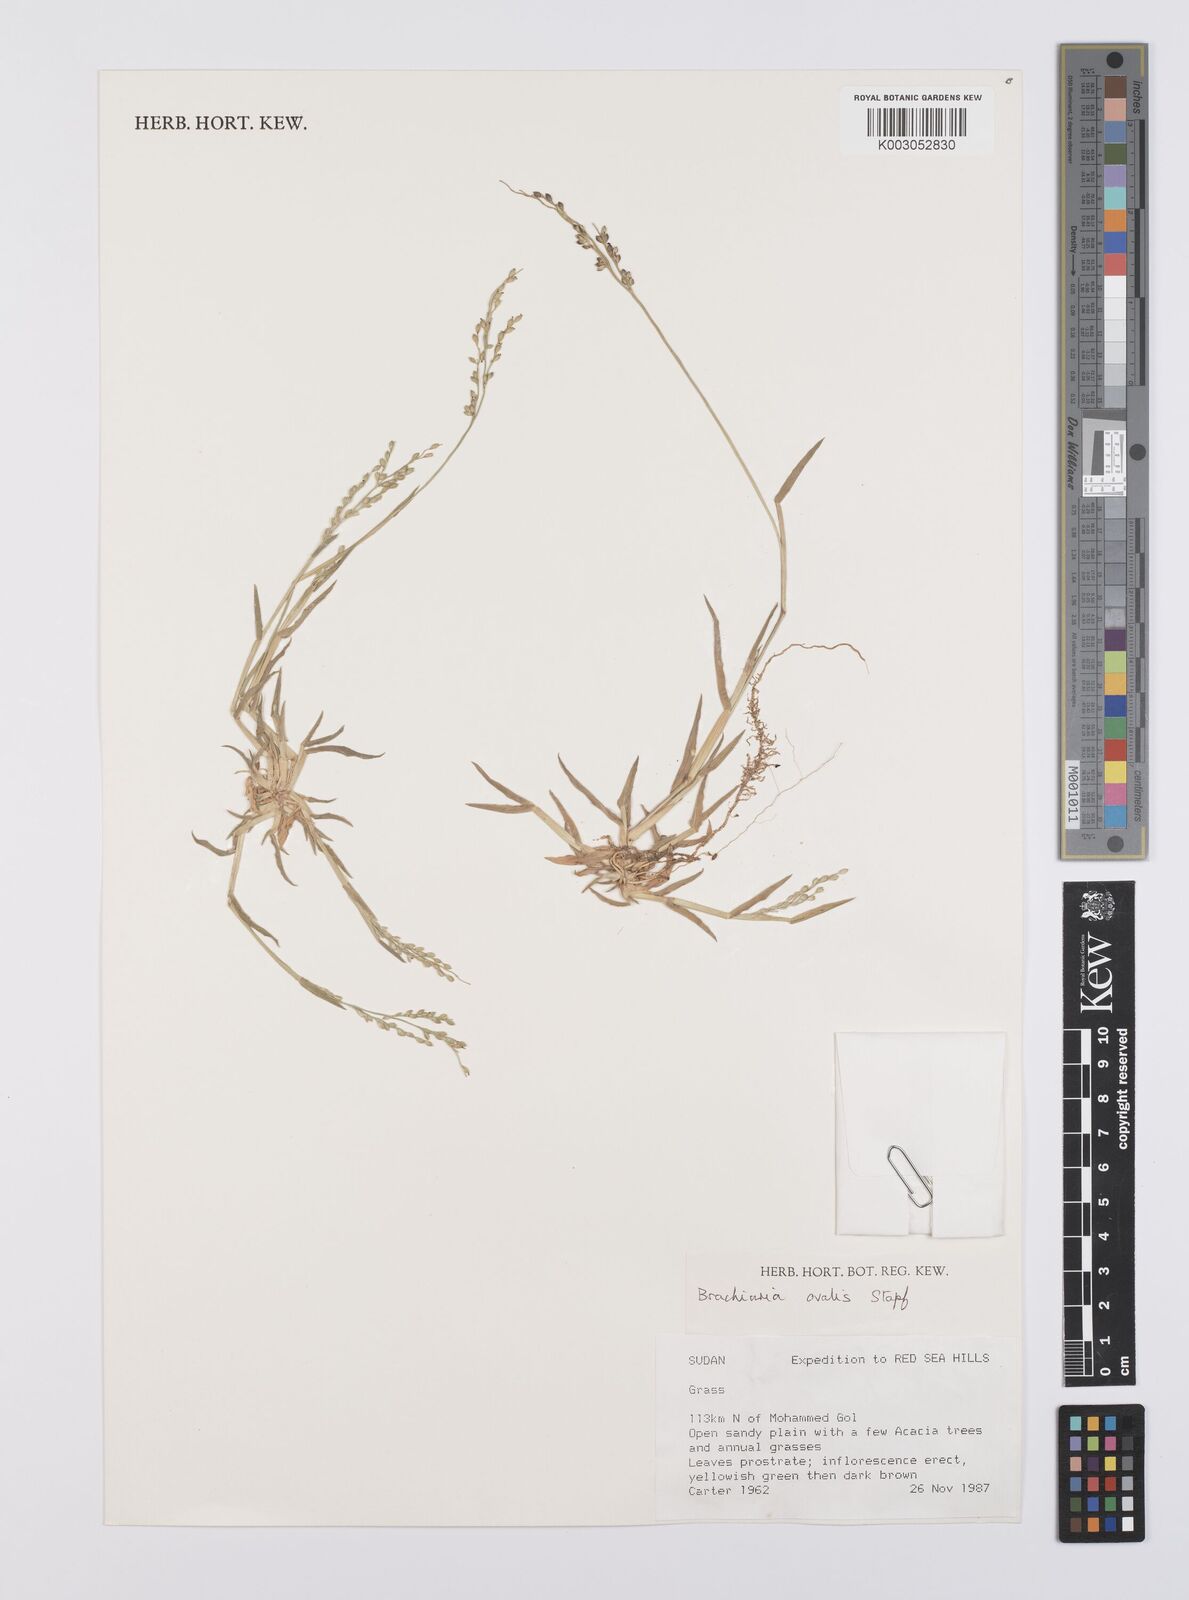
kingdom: Plantae
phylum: Tracheophyta
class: Liliopsida
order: Poales
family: Poaceae
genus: Urochloa
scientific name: Urochloa ovalis
